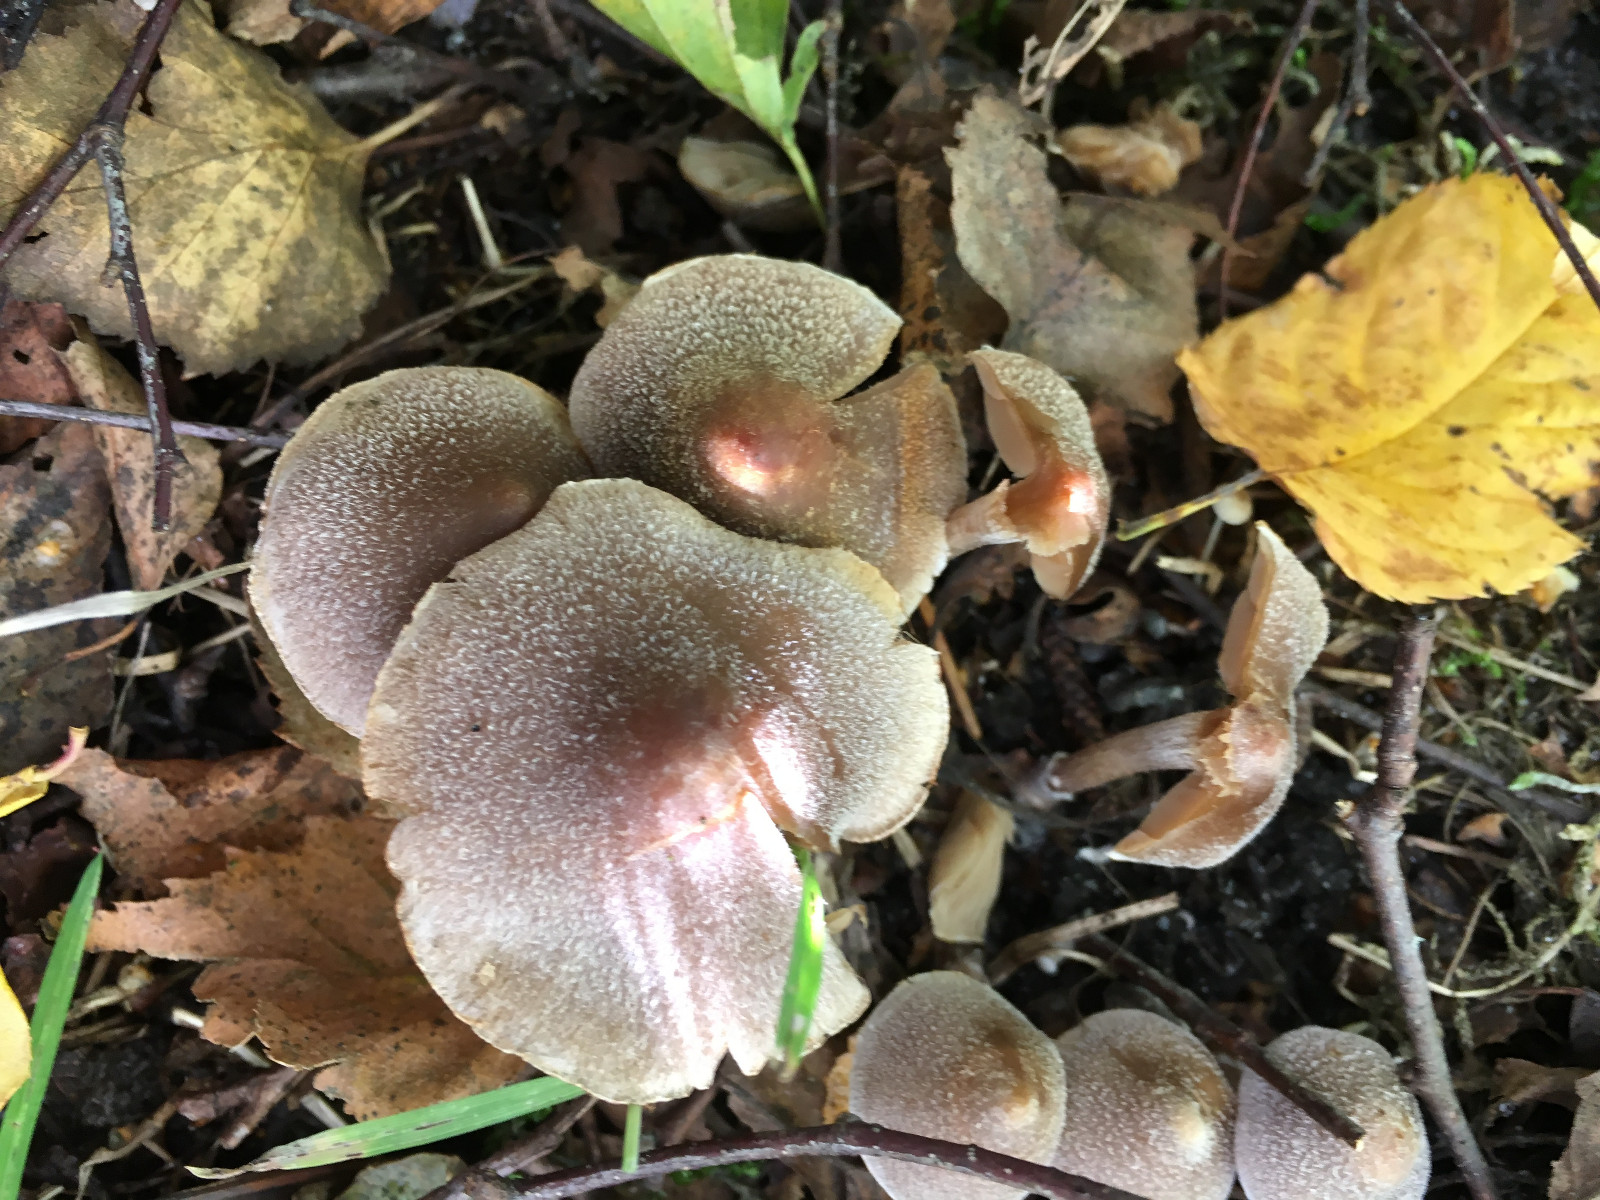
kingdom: Fungi
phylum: Basidiomycota
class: Agaricomycetes
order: Agaricales
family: Cortinariaceae
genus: Cortinarius
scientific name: Cortinarius
